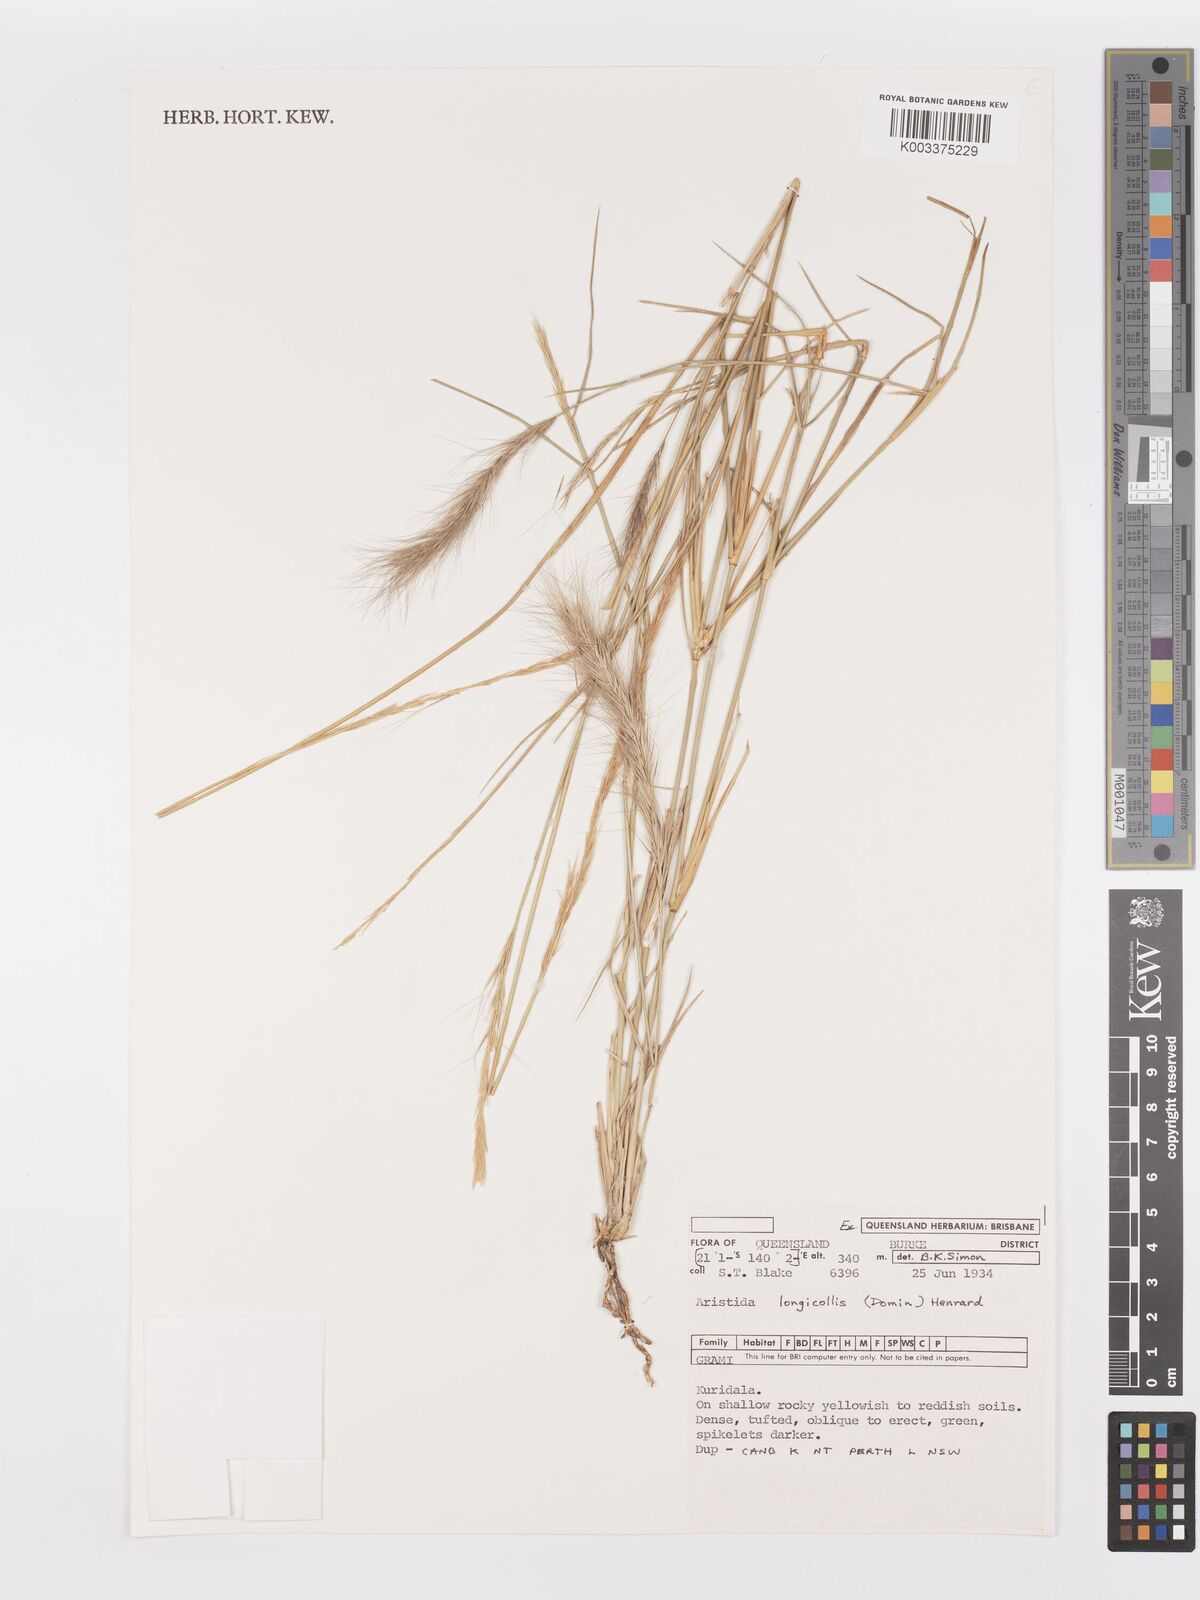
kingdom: Plantae
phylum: Tracheophyta
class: Liliopsida
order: Poales
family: Poaceae
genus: Aristida
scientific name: Aristida longicollis
